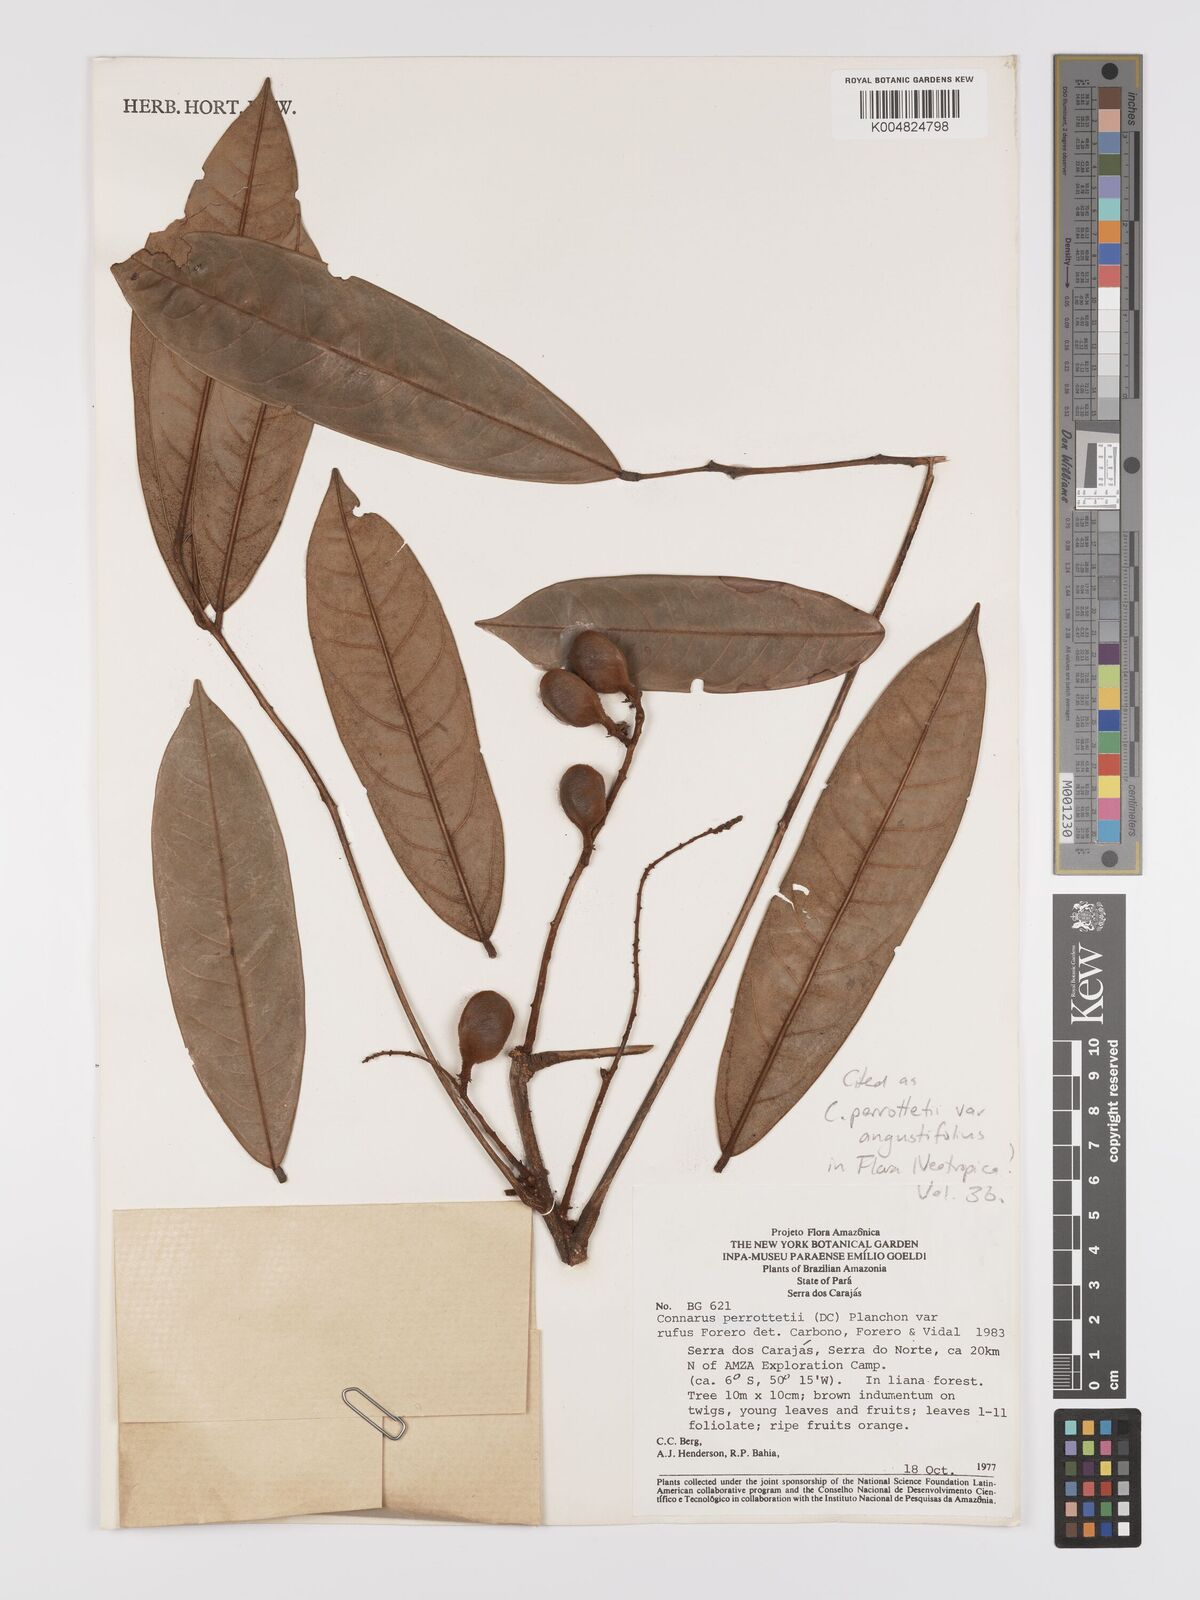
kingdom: Plantae
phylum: Tracheophyta
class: Magnoliopsida
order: Oxalidales
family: Connaraceae
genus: Connarus
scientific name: Connarus perrottetii
